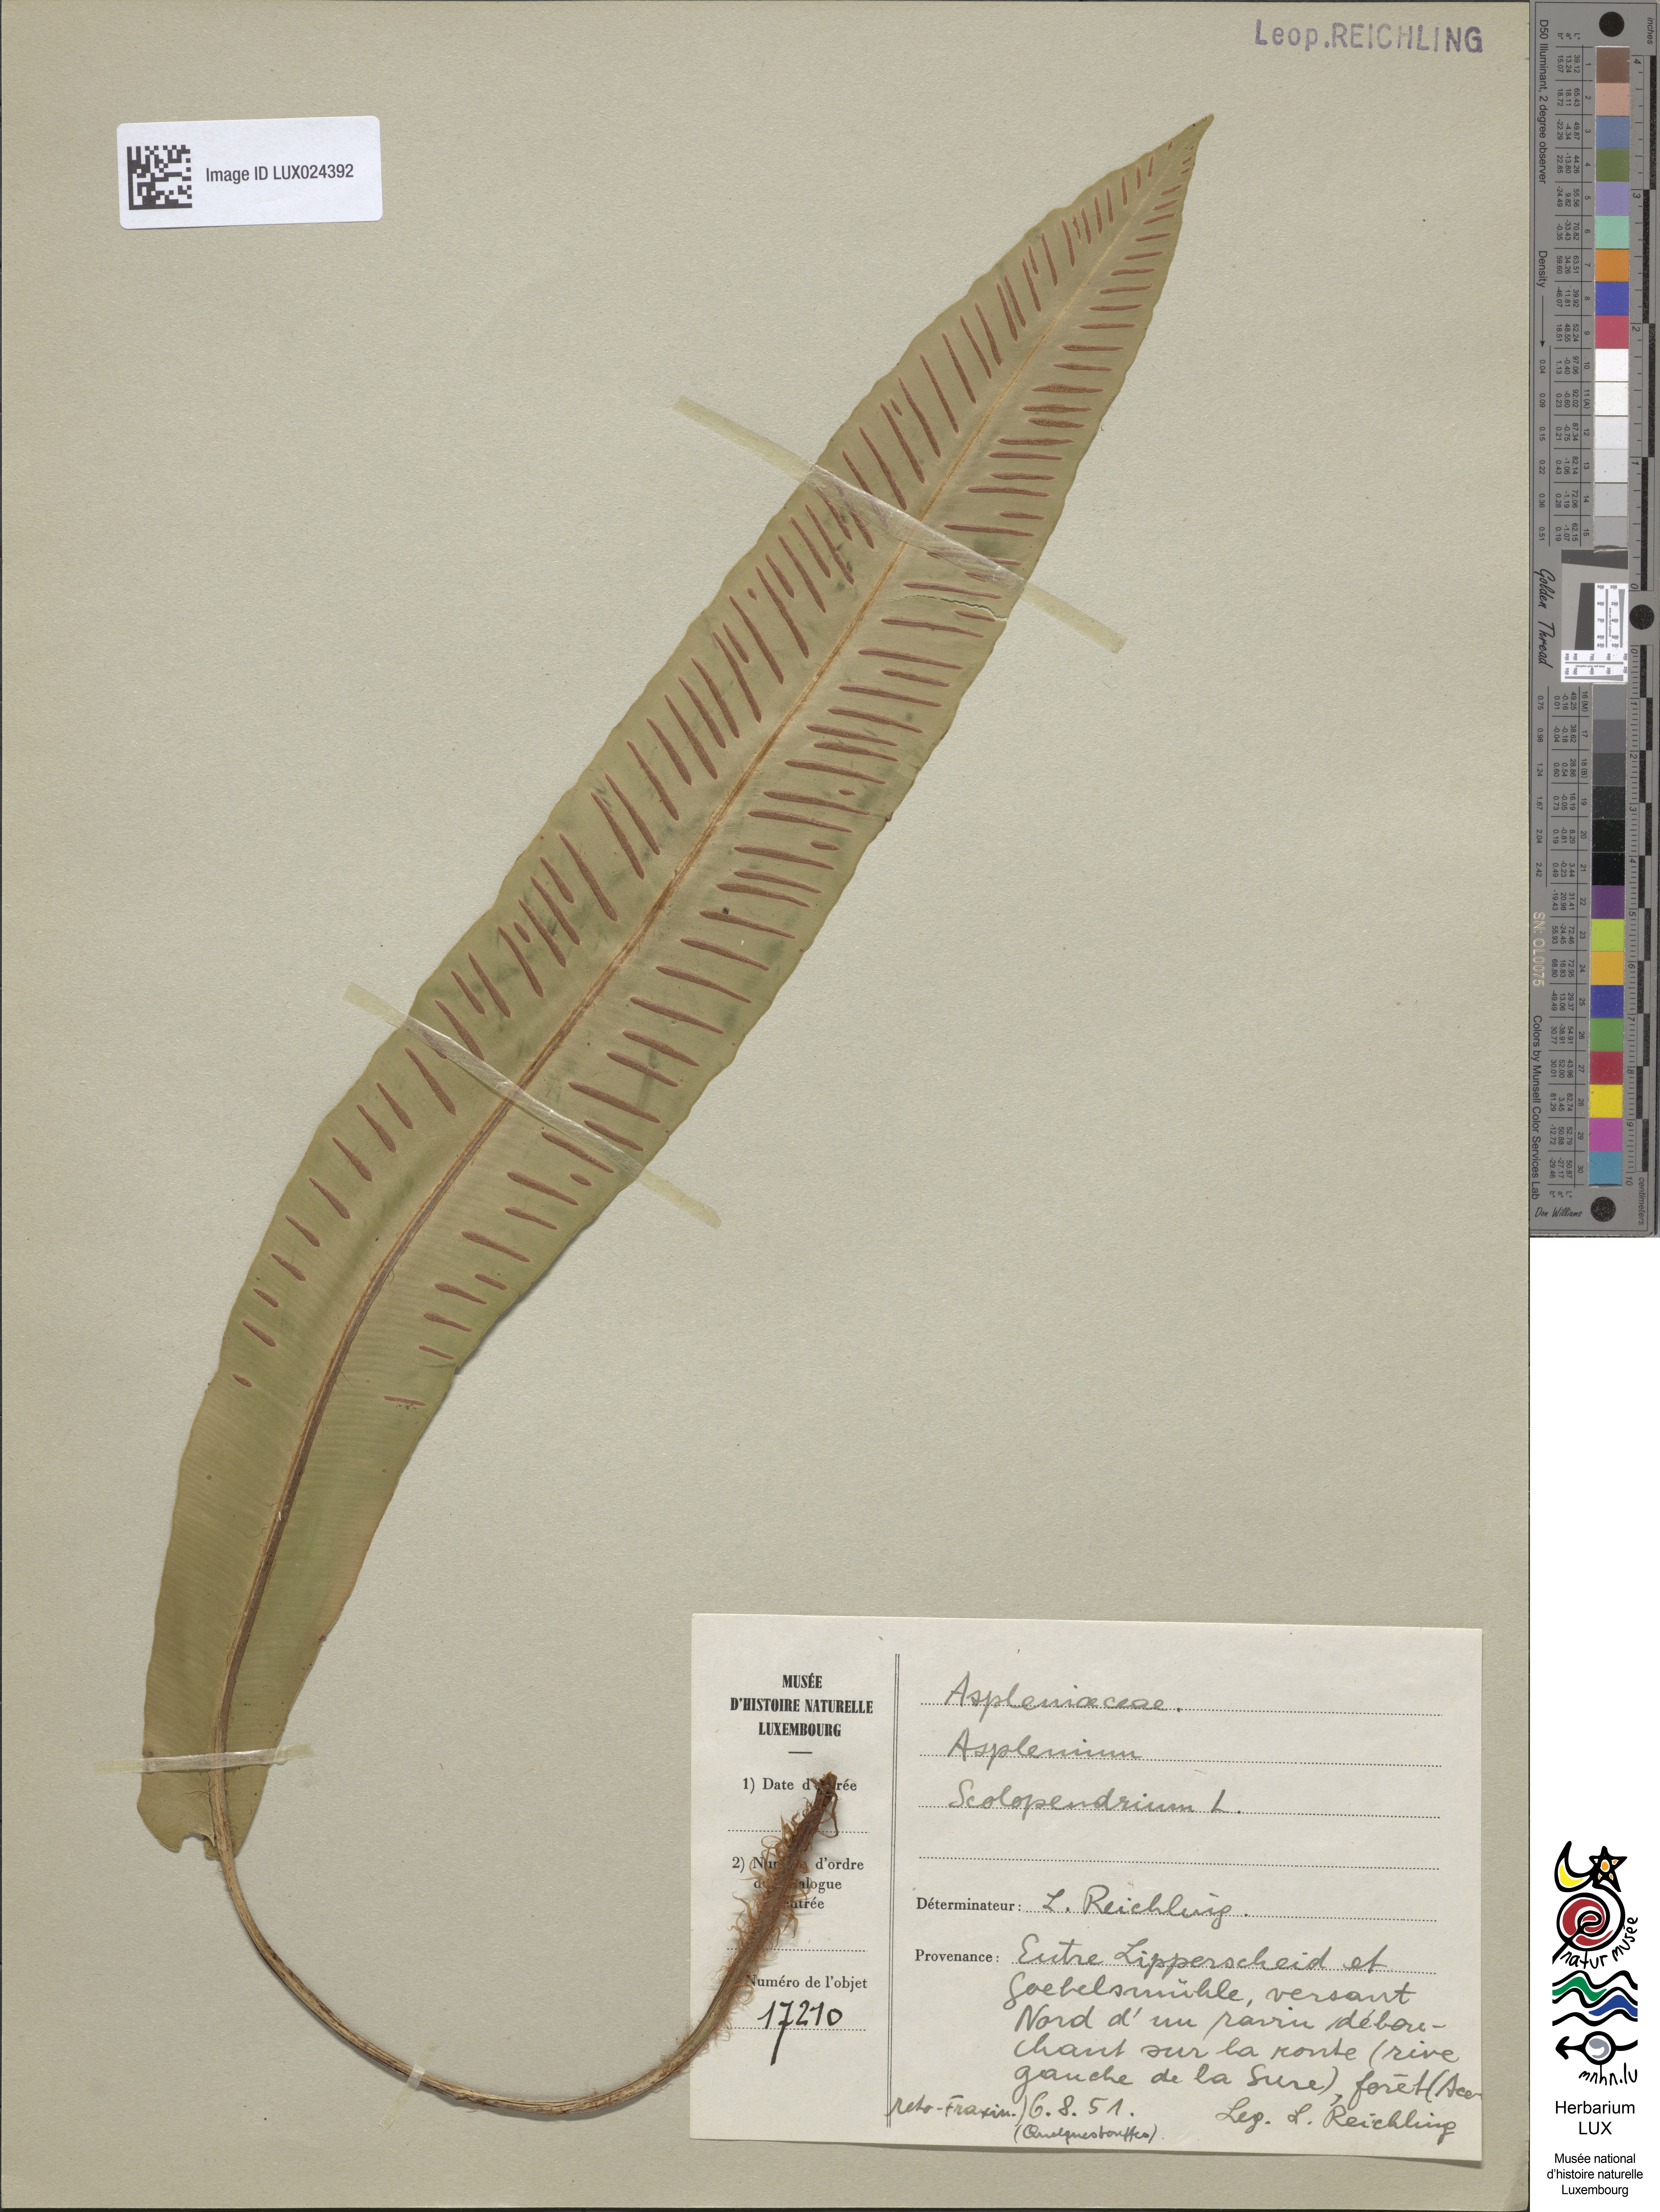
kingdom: Plantae
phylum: Tracheophyta
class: Polypodiopsida
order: Polypodiales
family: Aspleniaceae
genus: Asplenium
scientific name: Asplenium scolopendrium
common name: Hart's-tongue fern
